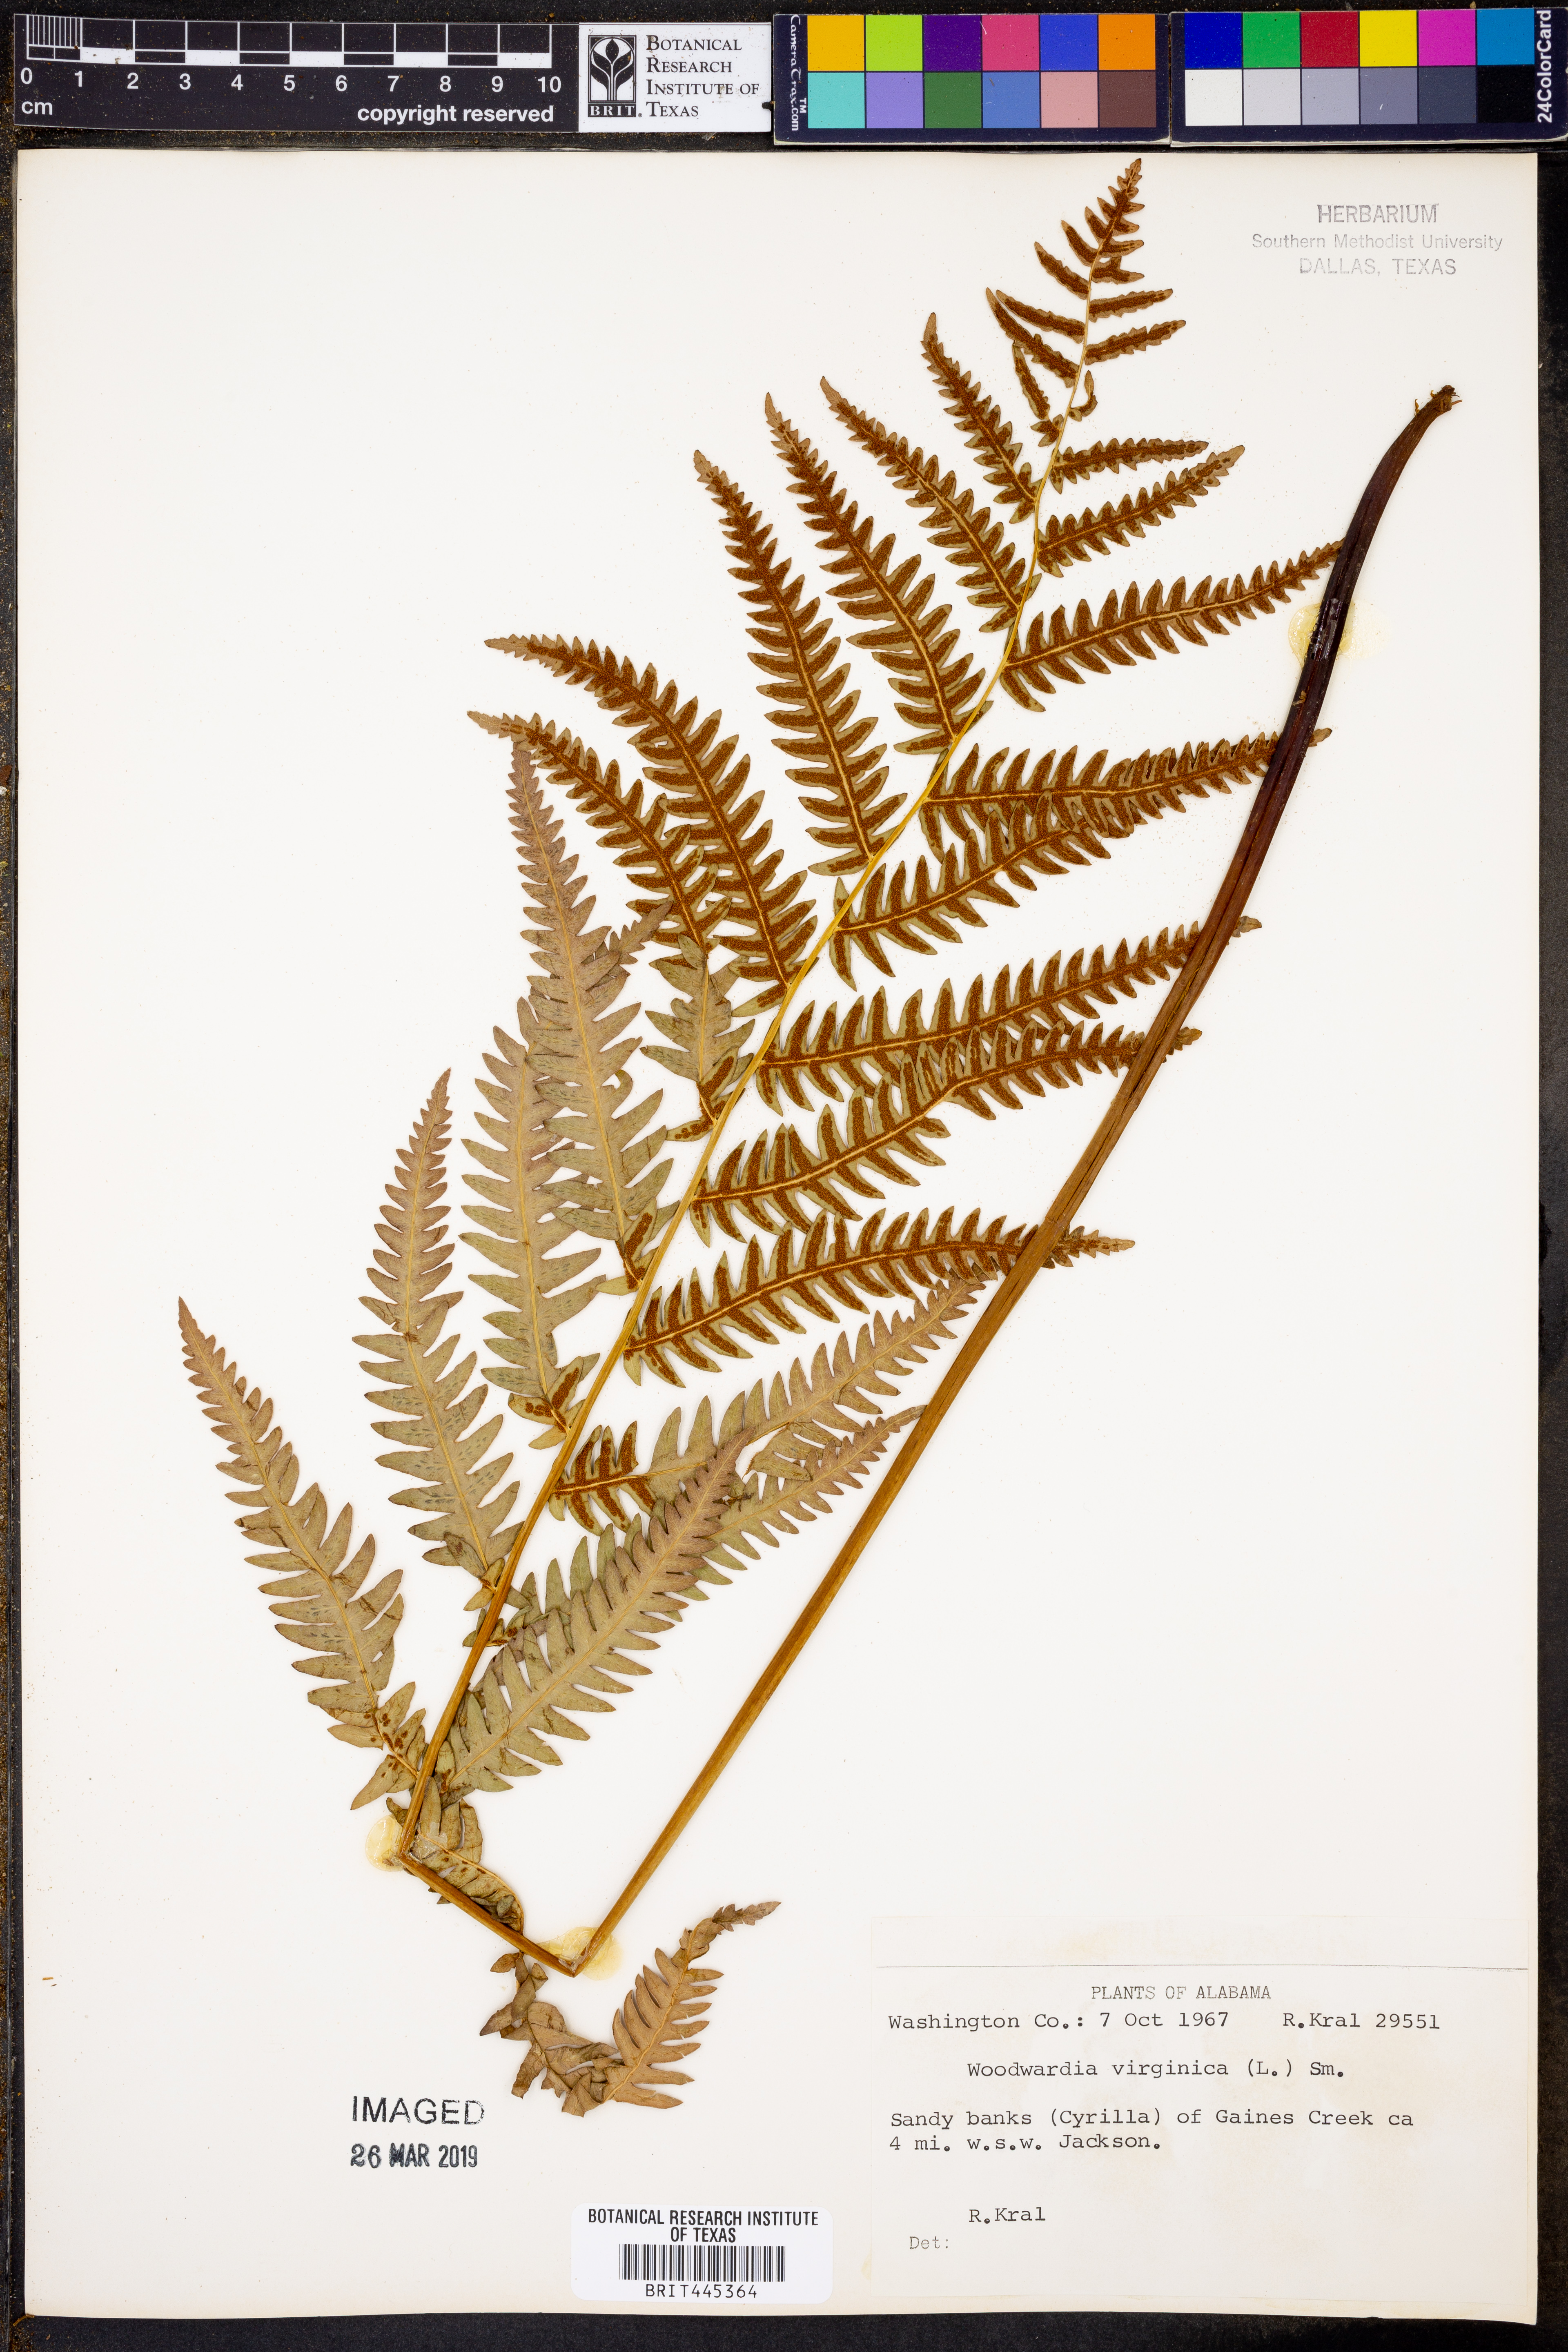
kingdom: Plantae
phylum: Tracheophyta
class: Polypodiopsida
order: Polypodiales
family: Blechnaceae
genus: Anchistea
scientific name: Anchistea virginica
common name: Virginia chain fern
